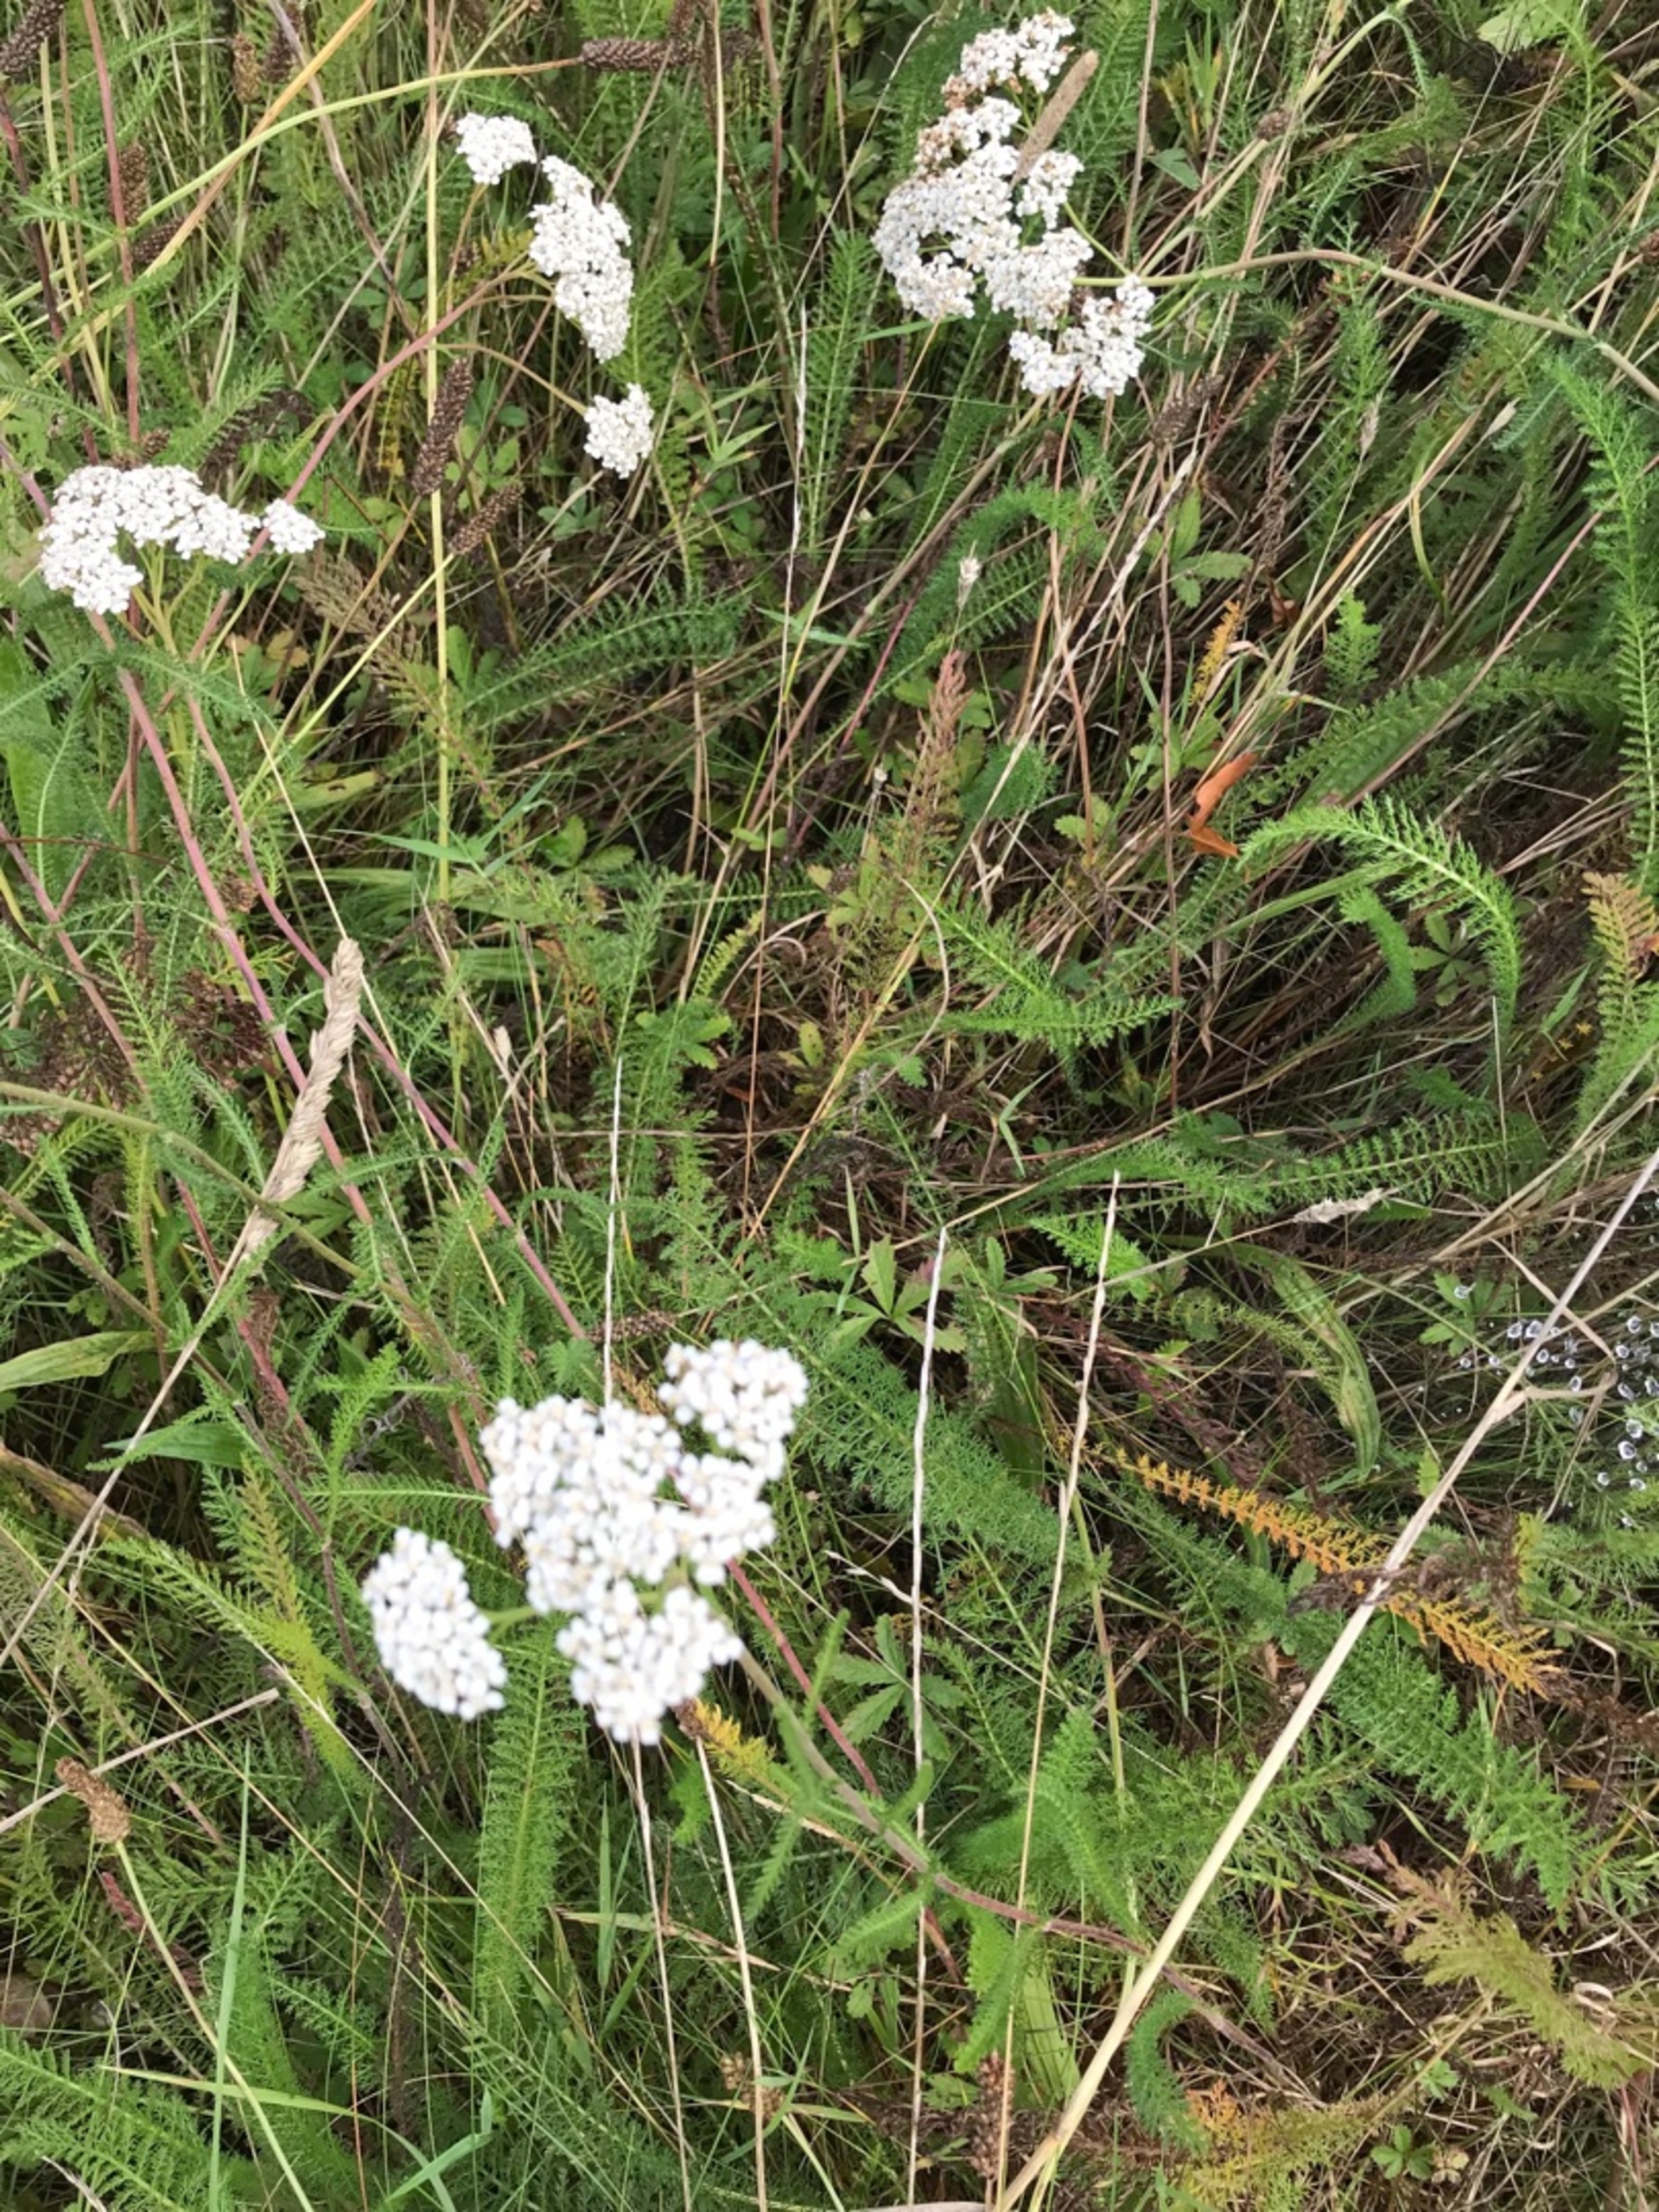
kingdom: Plantae
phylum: Tracheophyta
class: Magnoliopsida
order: Asterales
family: Asteraceae
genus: Achillea
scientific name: Achillea millefolium
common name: Almindelig røllike
